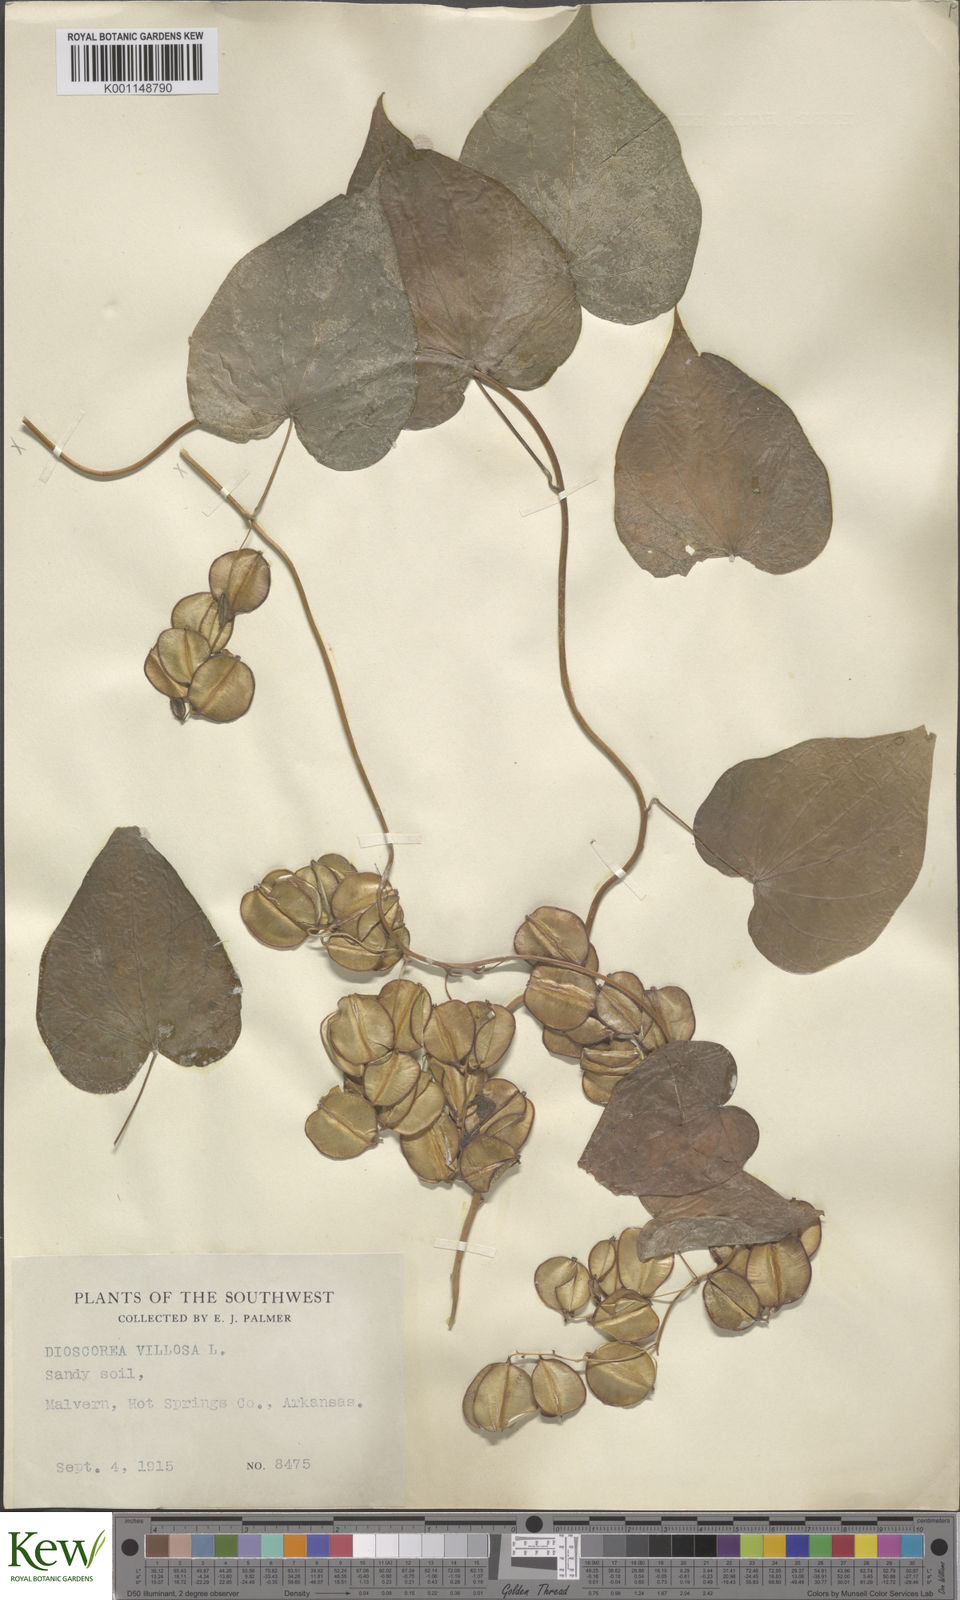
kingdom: Plantae
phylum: Tracheophyta
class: Liliopsida
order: Dioscoreales
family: Dioscoreaceae
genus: Dioscorea
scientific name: Dioscorea villosa
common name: Wild yam
